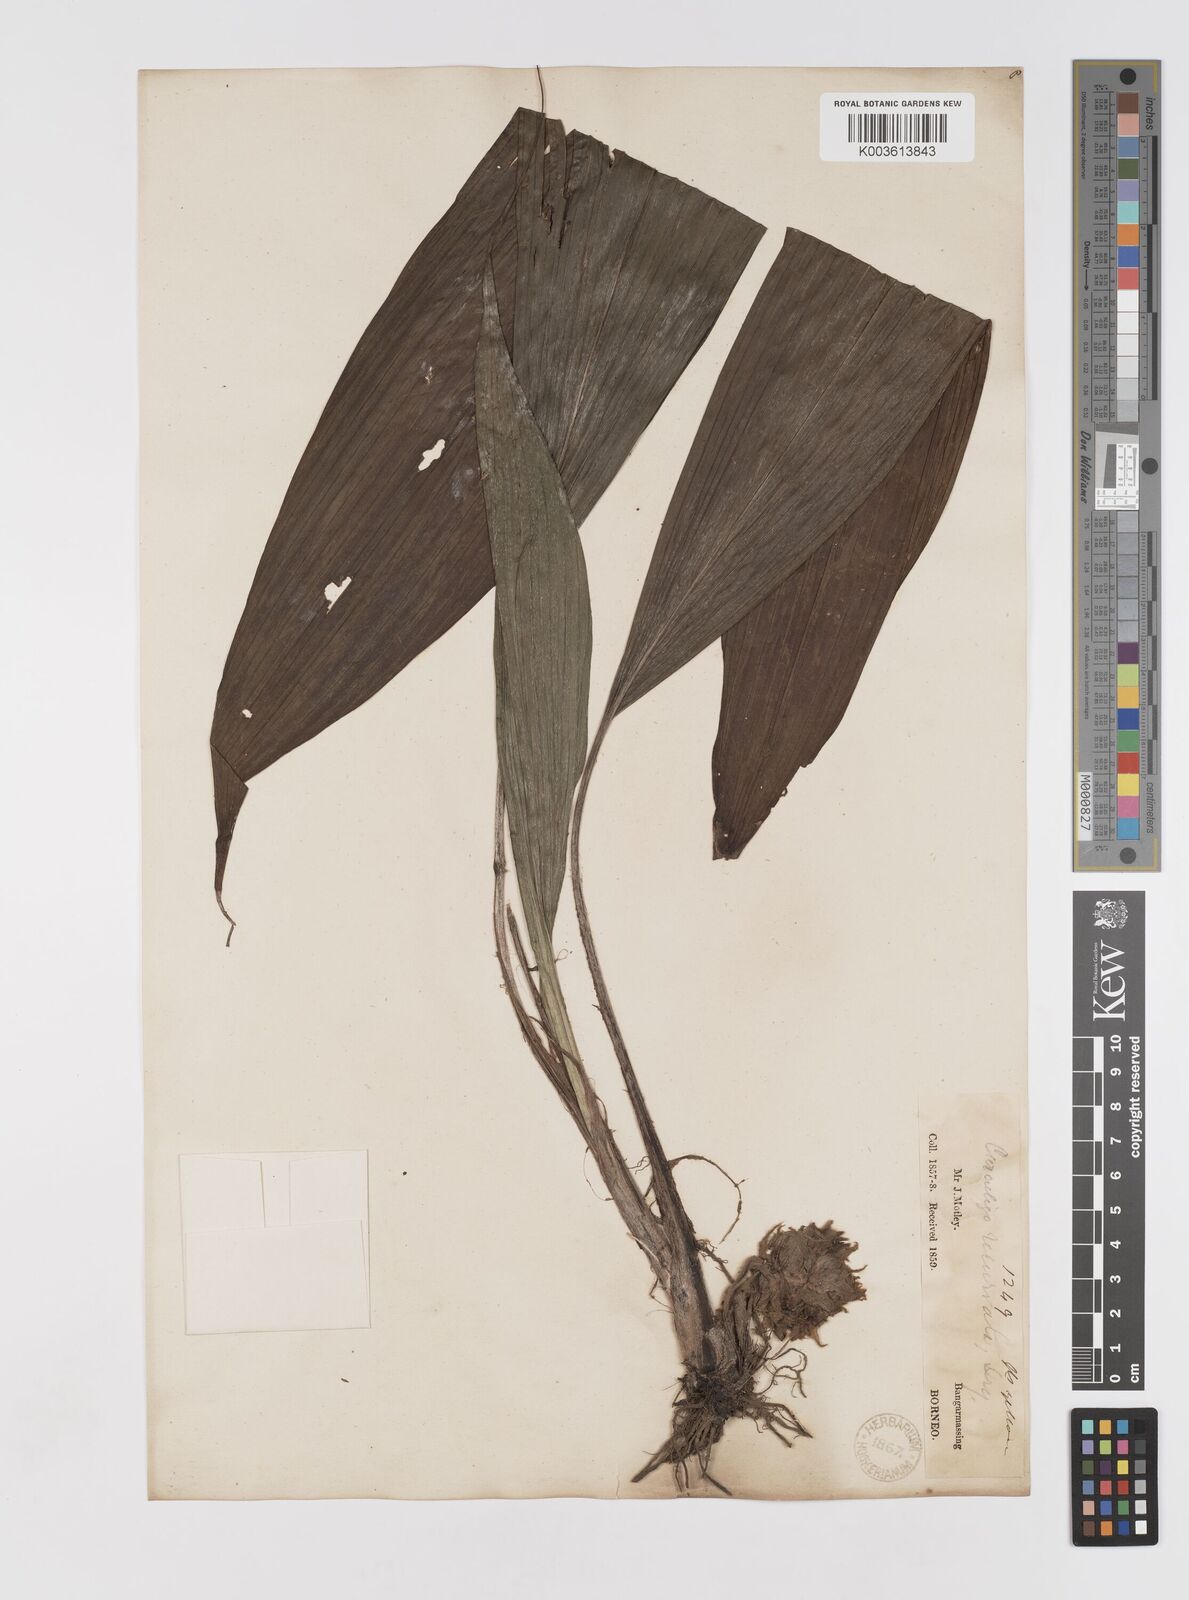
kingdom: Plantae
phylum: Tracheophyta
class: Liliopsida
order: Asparagales
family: Hypoxidaceae
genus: Curculigo
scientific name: Curculigo capitulata
